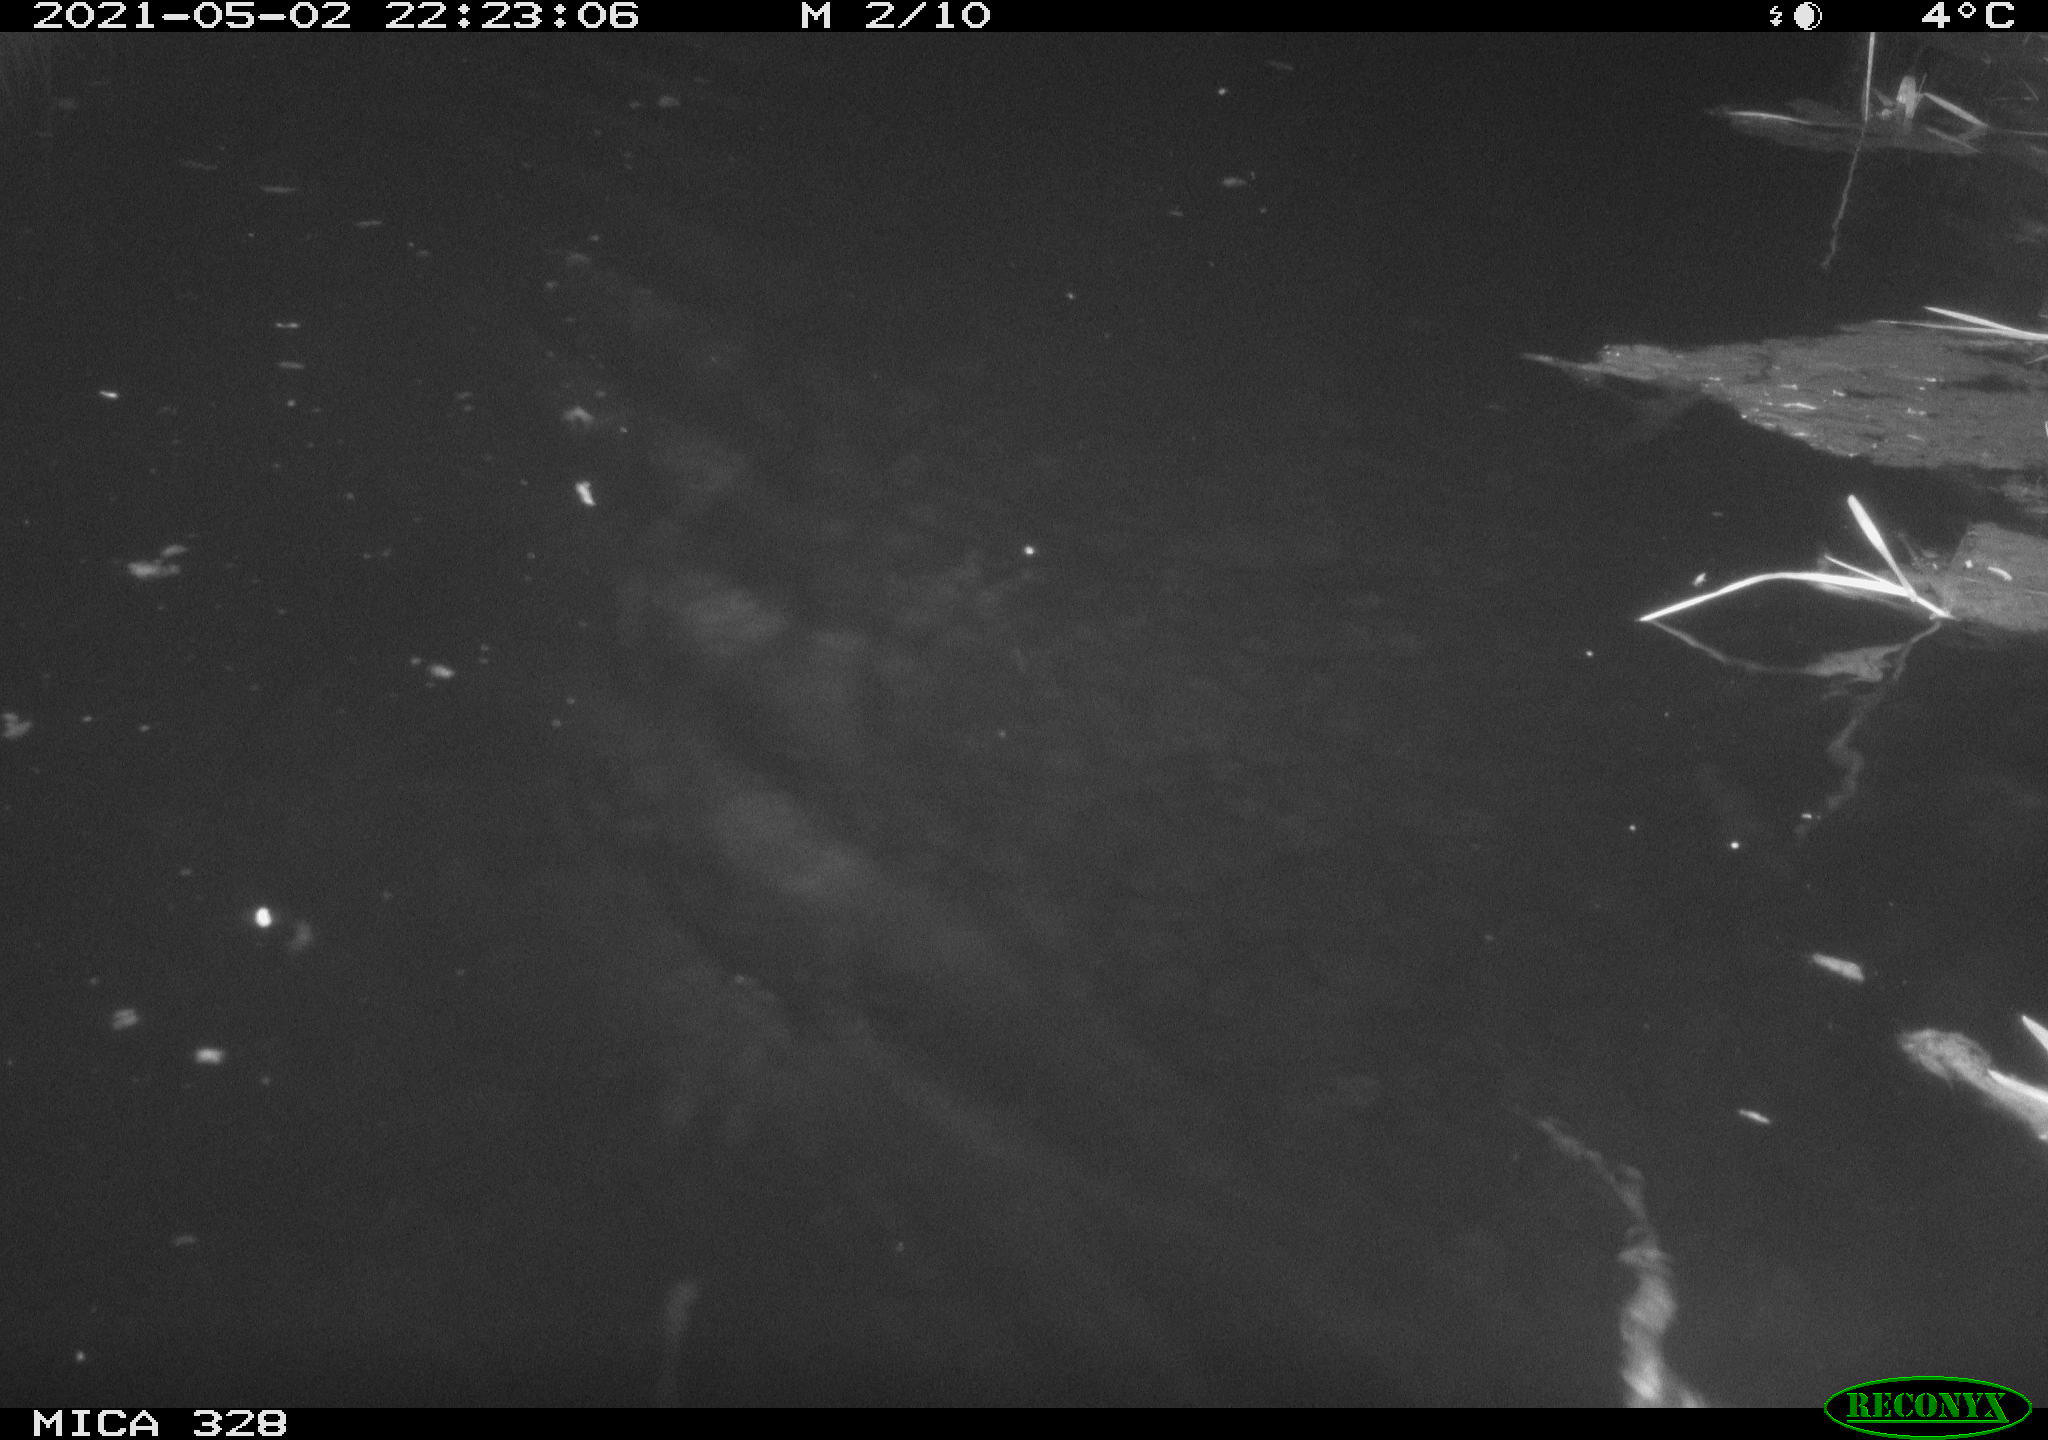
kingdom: Animalia
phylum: Chordata
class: Mammalia
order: Rodentia
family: Cricetidae
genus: Ondatra
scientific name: Ondatra zibethicus
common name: Muskrat
